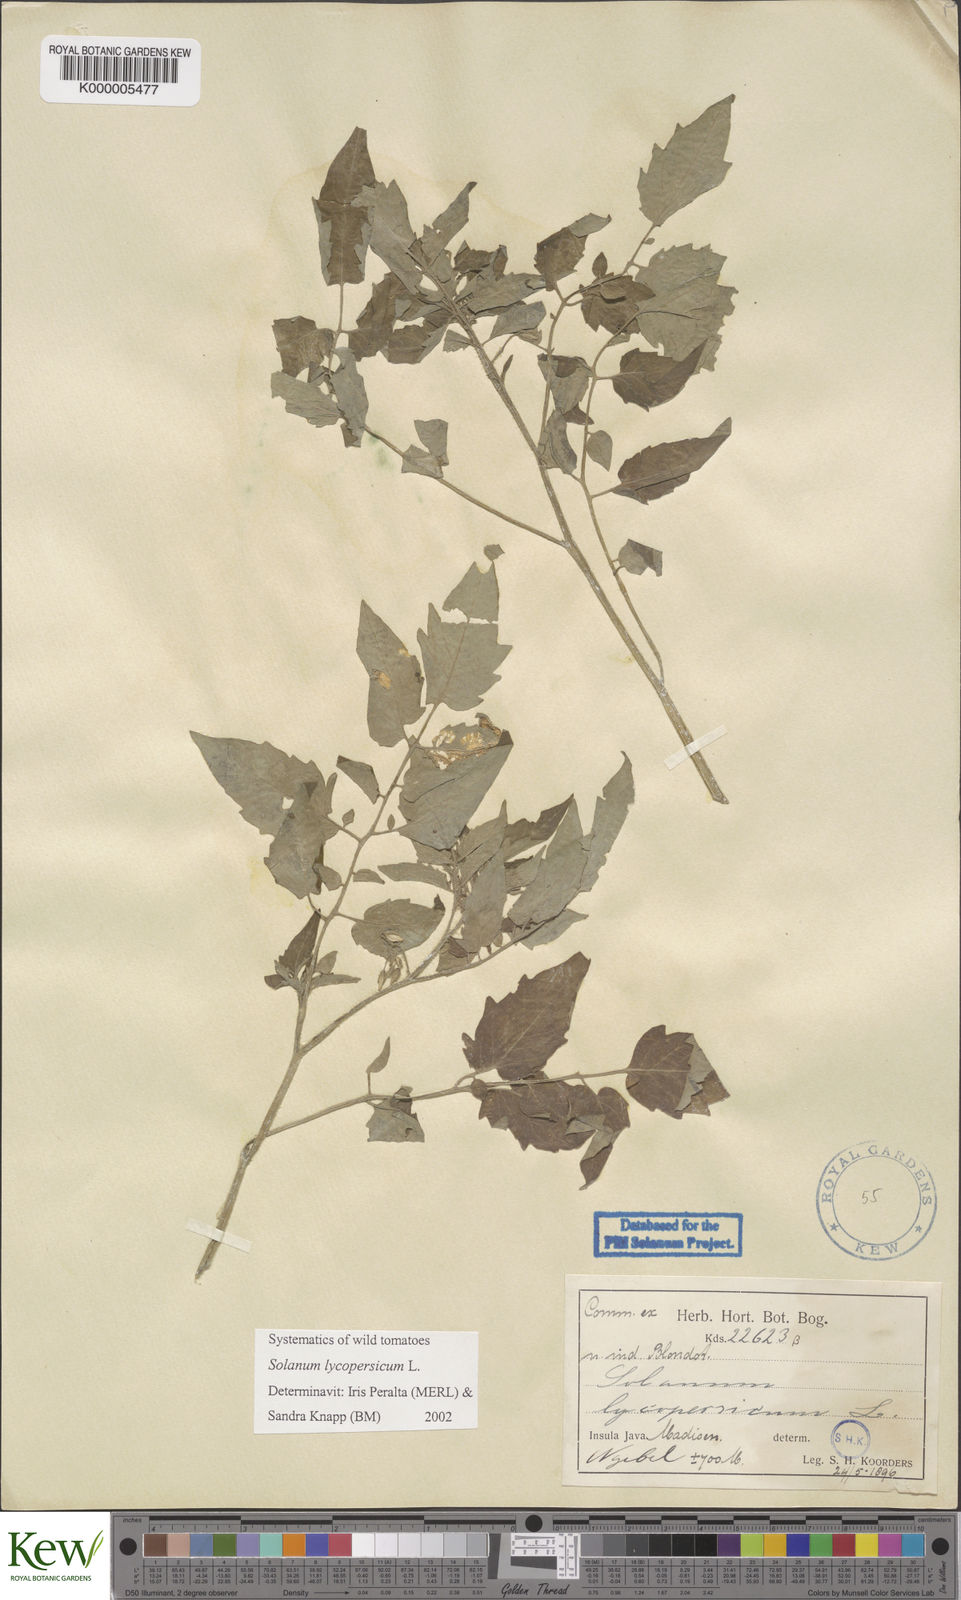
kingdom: Plantae
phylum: Tracheophyta
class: Magnoliopsida
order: Solanales
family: Solanaceae
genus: Solanum
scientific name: Solanum lycopersicum
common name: Garden tomato
